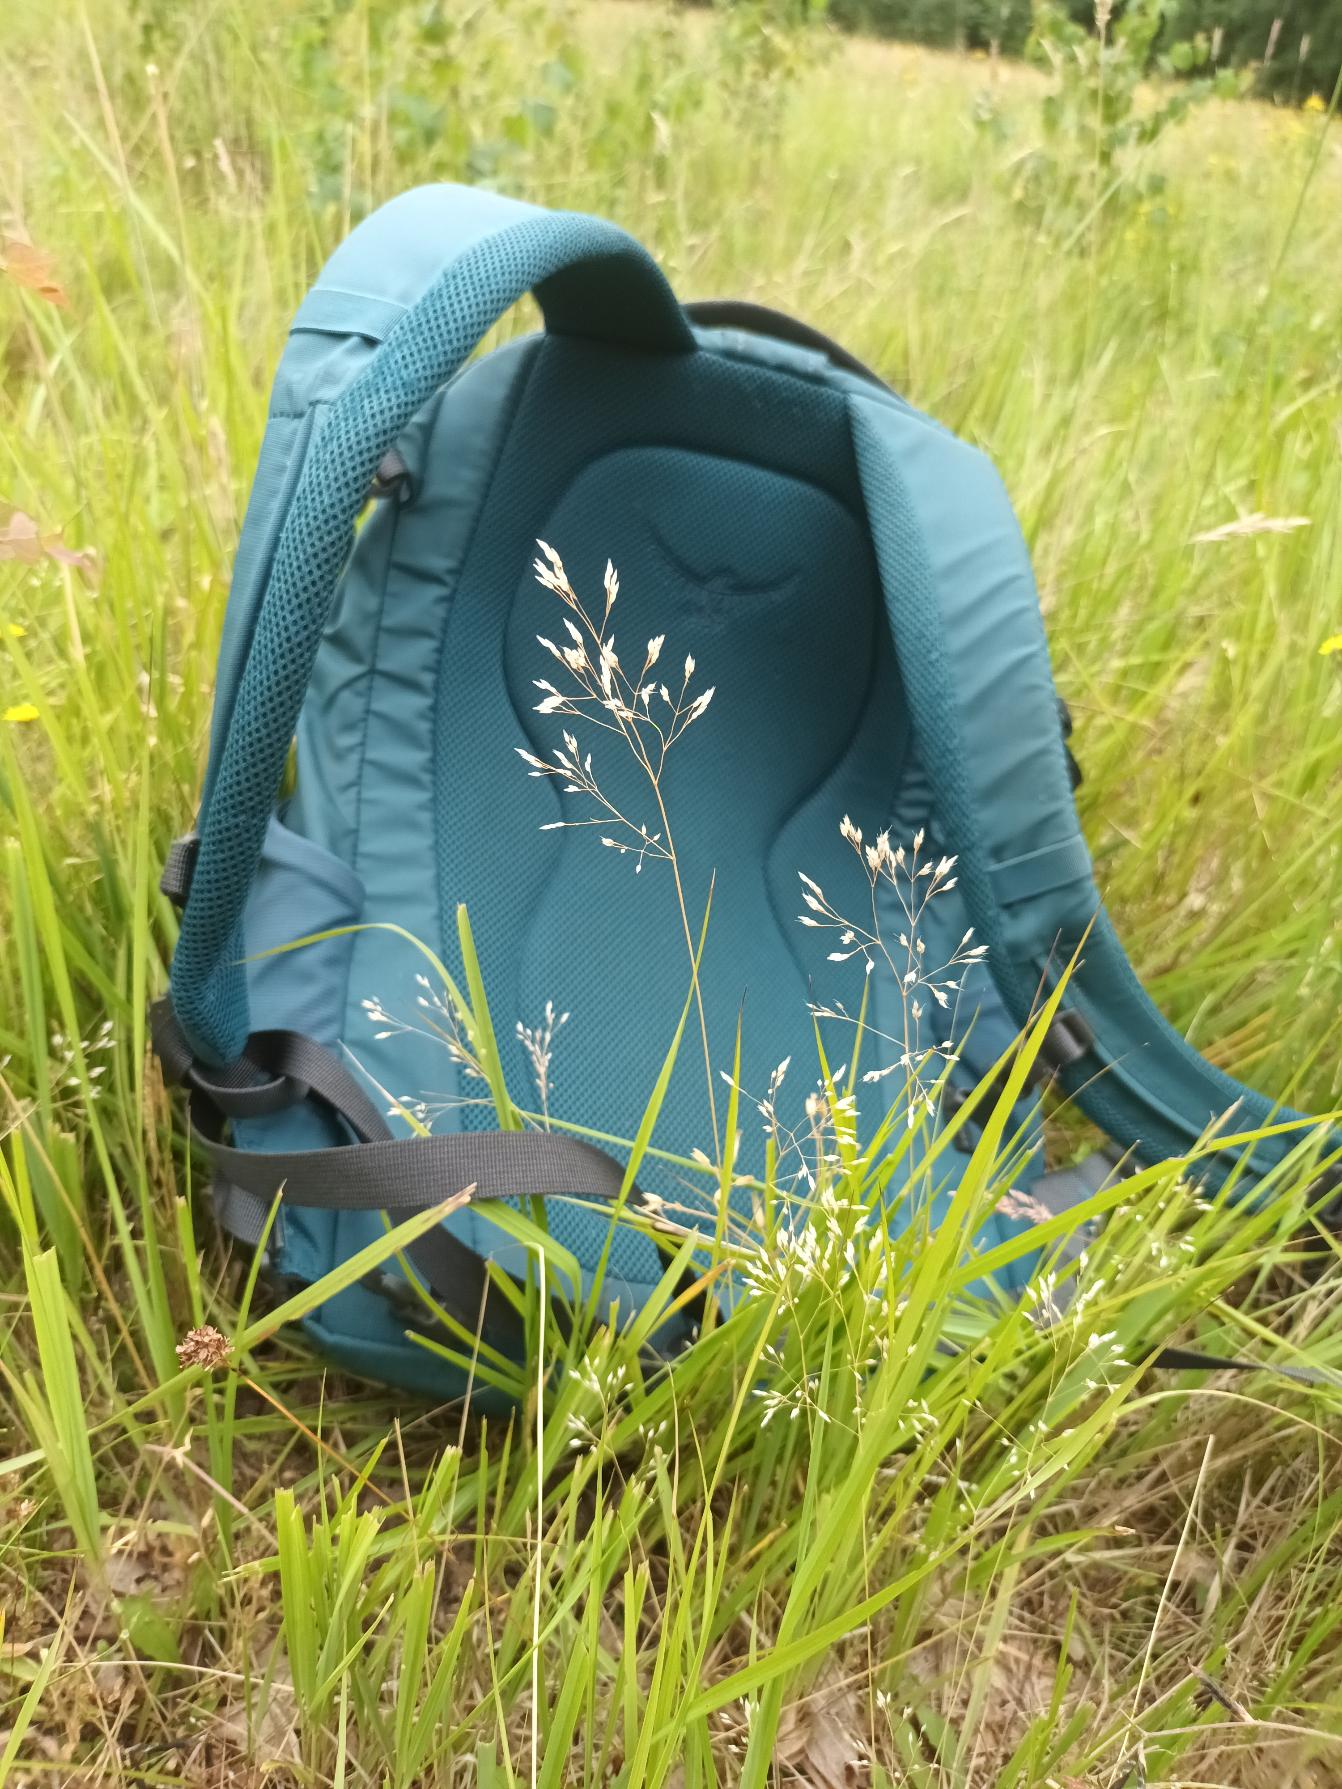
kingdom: Plantae
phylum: Tracheophyta
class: Liliopsida
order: Poales
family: Poaceae
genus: Aira
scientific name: Aira caryophyllea
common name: Udspærret dværgbunke
